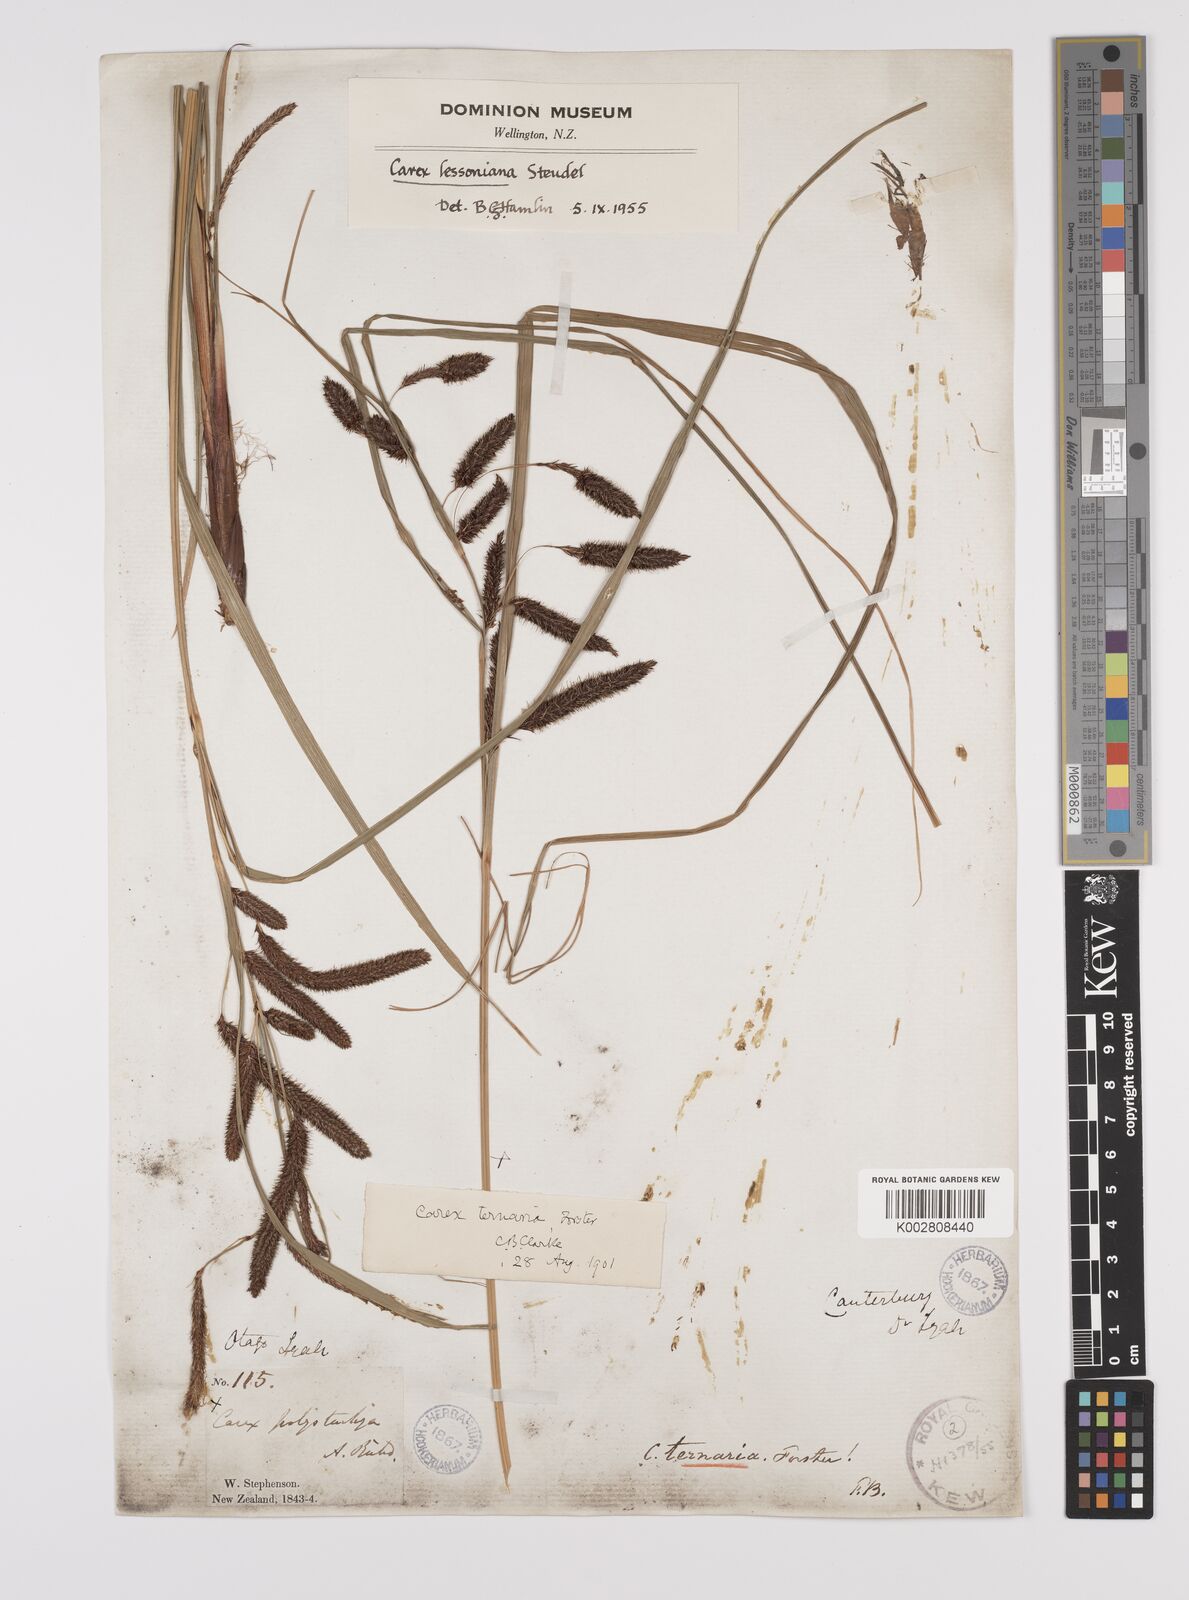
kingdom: Plantae
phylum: Tracheophyta
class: Liliopsida
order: Poales
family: Cyperaceae
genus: Carex
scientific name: Carex lessoniana
